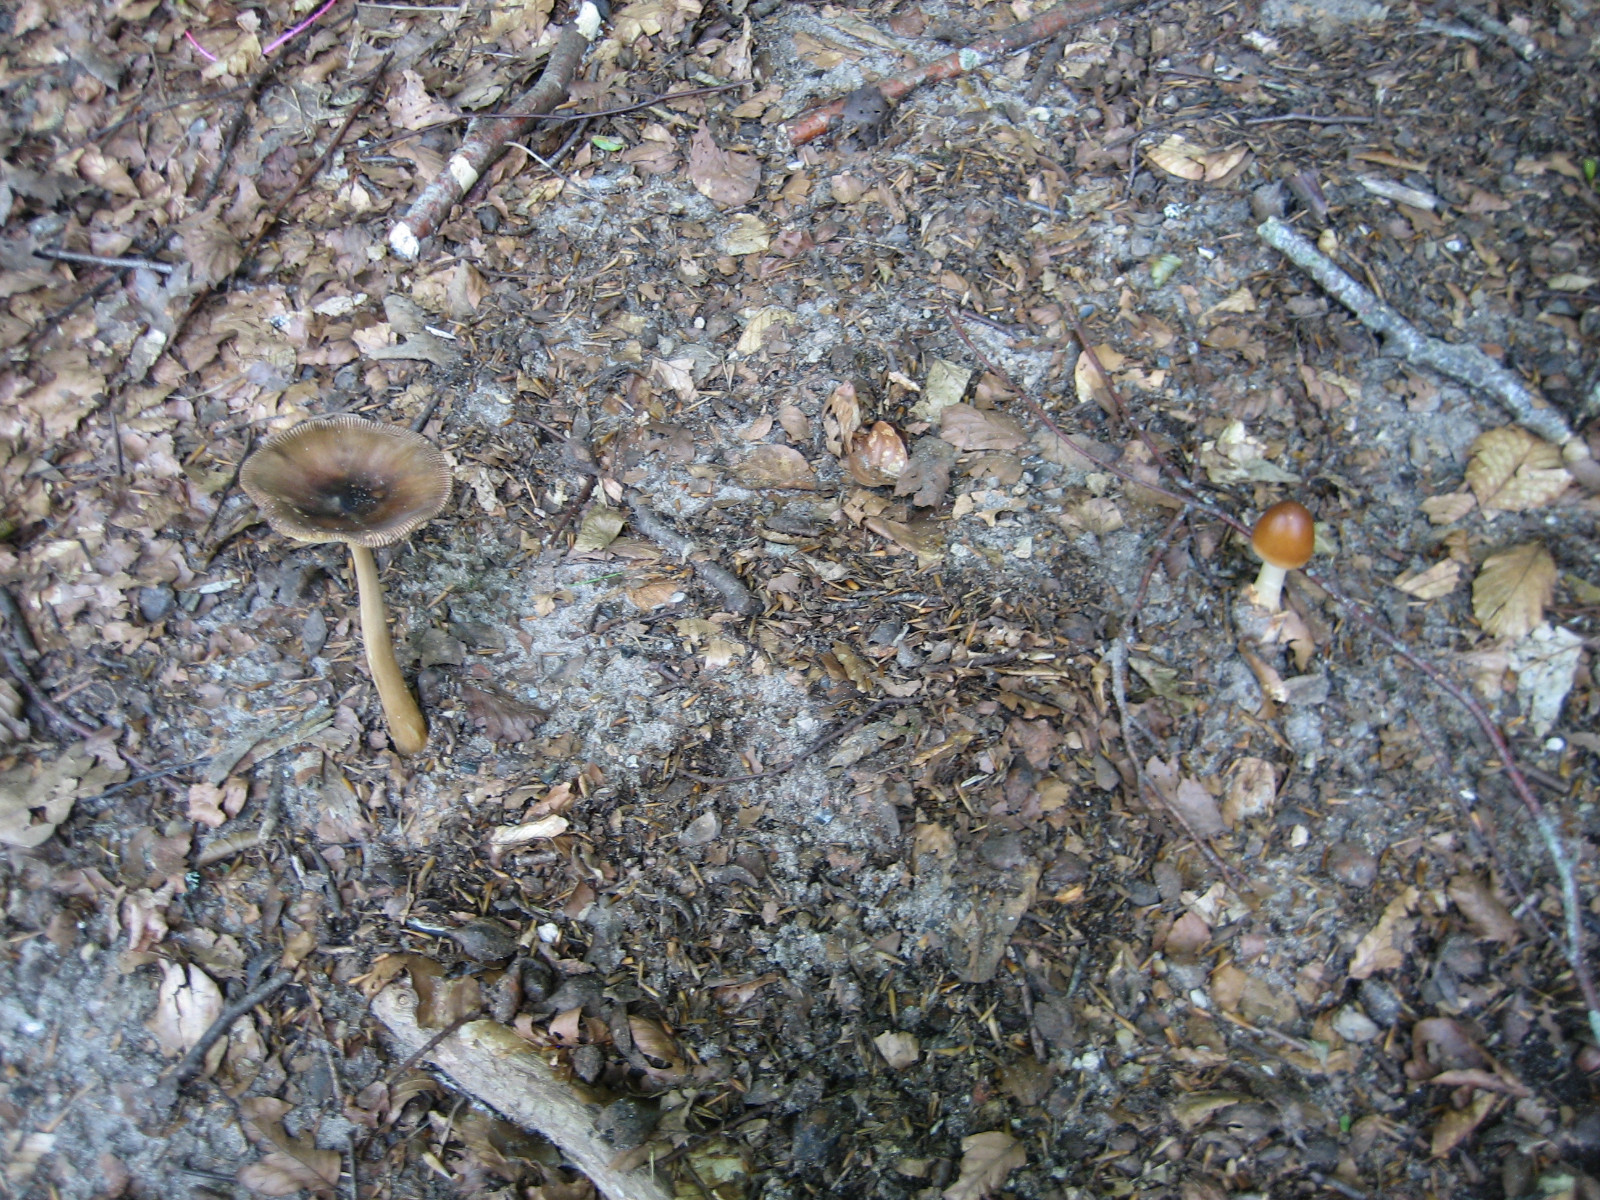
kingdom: Fungi
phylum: Basidiomycota
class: Agaricomycetes
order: Agaricales
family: Amanitaceae
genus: Amanita
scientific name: Amanita fulva
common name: brun kam-fluesvamp
